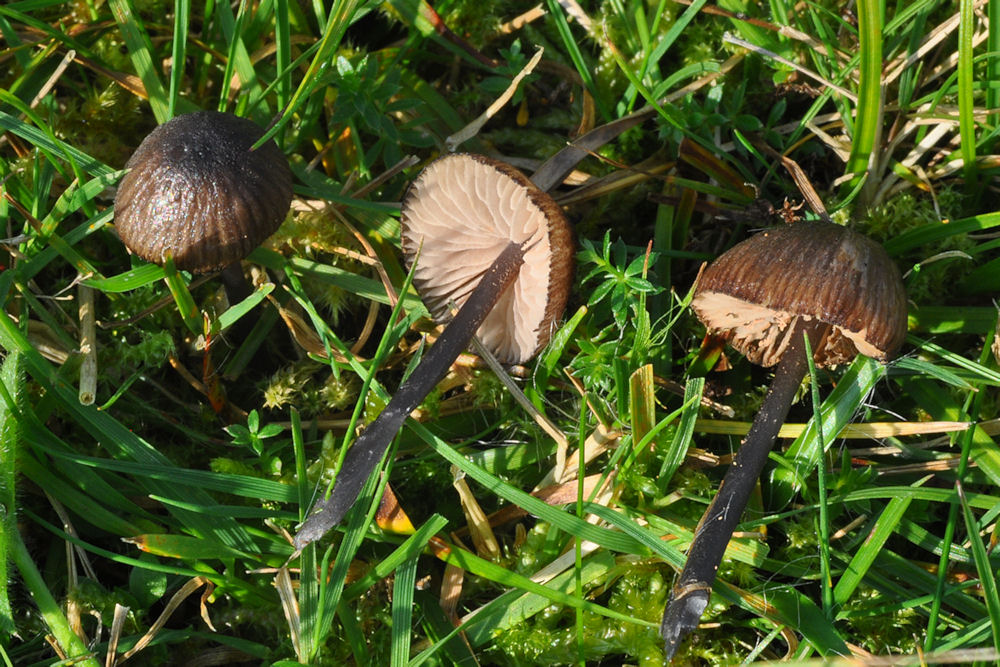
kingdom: Fungi
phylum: Basidiomycota
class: Agaricomycetes
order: Agaricales
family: Entolomataceae
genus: Entoloma
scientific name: Entoloma poliopus
